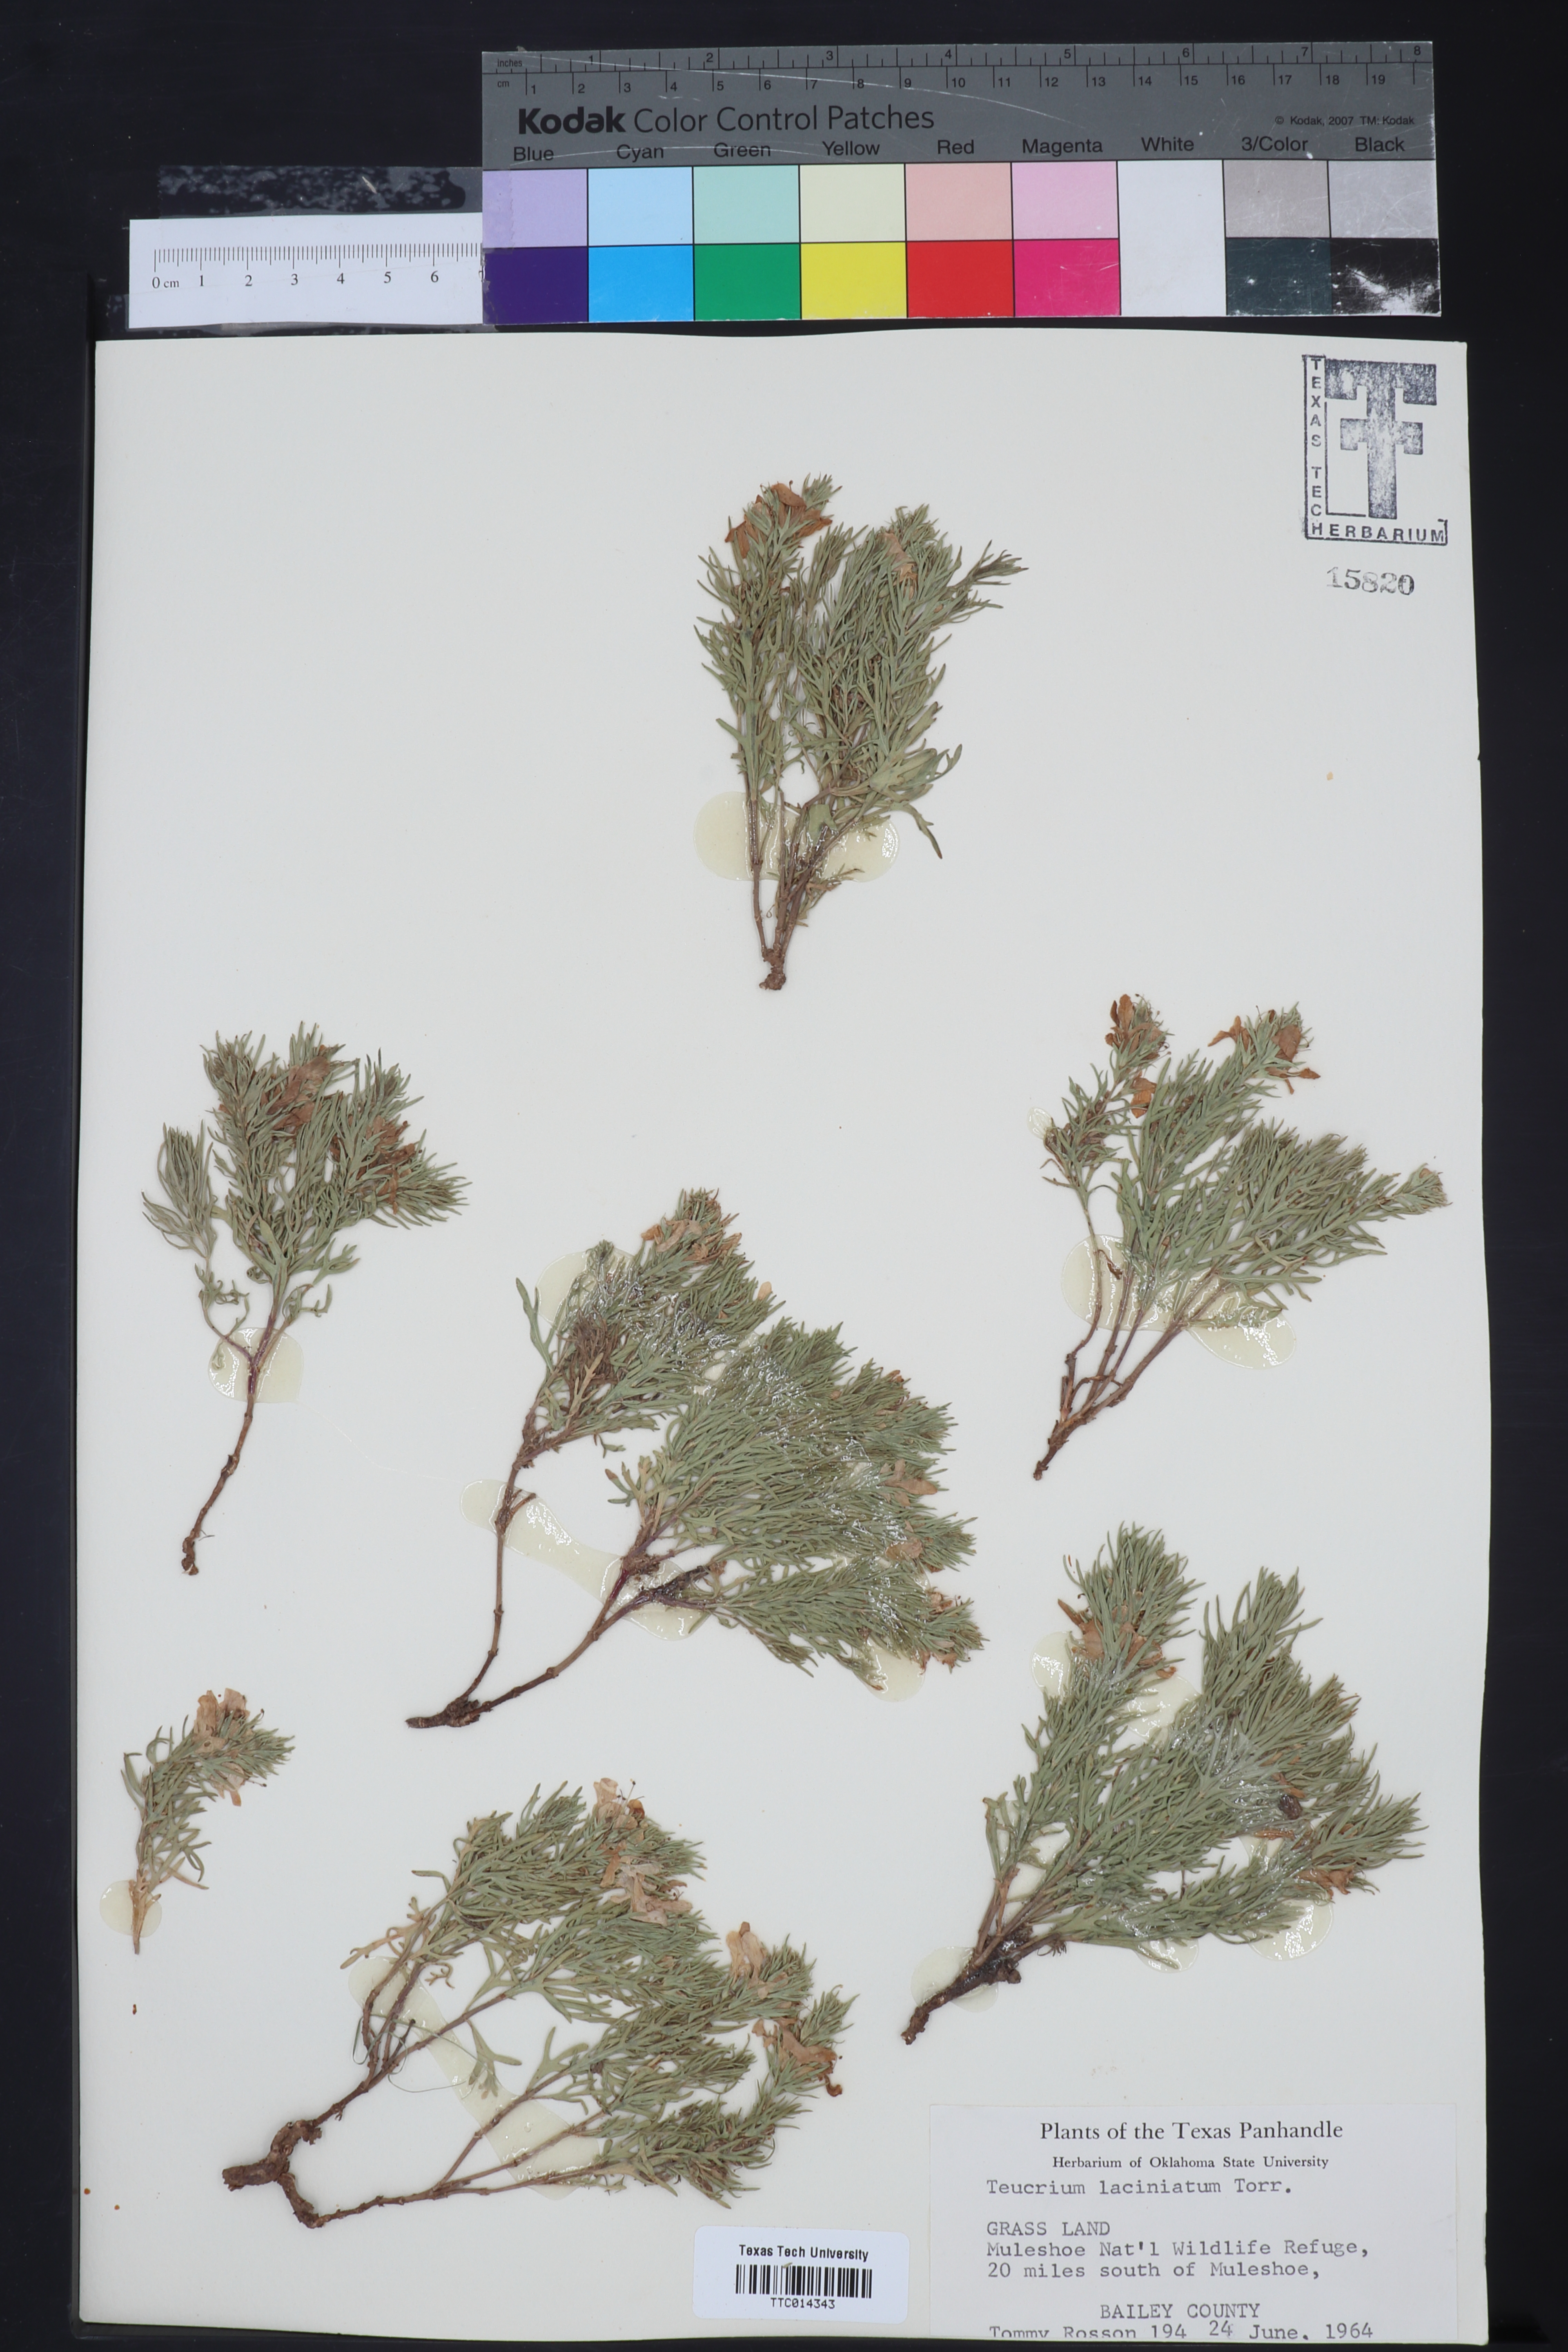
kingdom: Plantae
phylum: Tracheophyta
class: Magnoliopsida
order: Lamiales
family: Lamiaceae
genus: Teucrium
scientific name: Teucrium laciniatum
